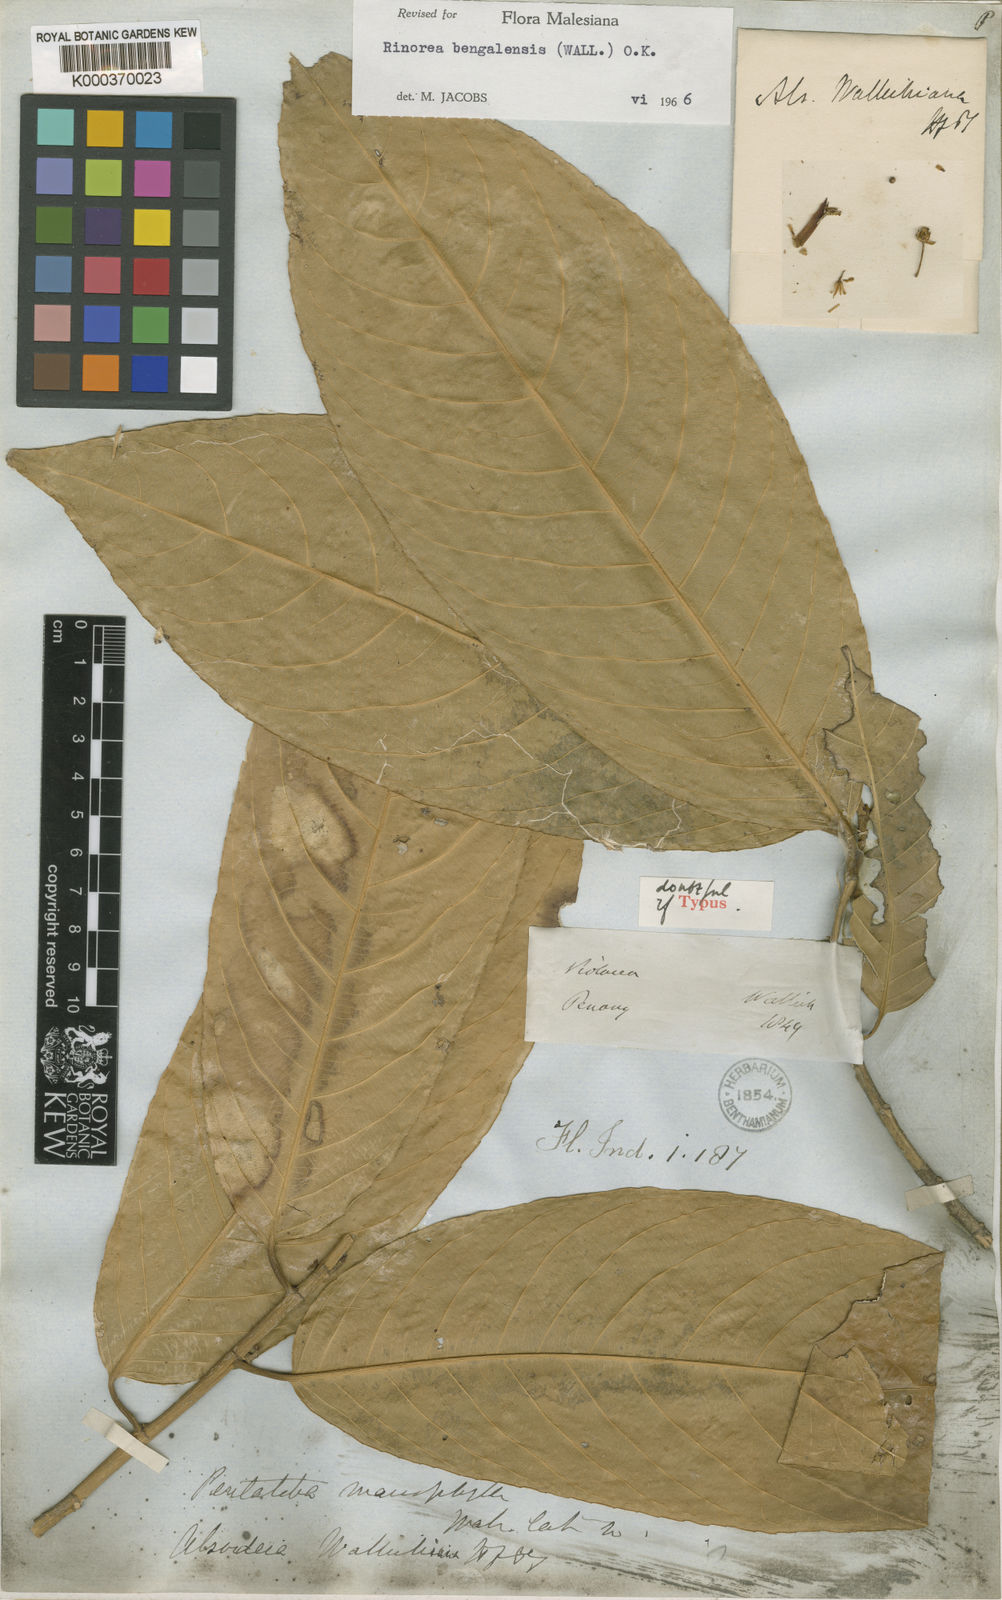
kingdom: Plantae
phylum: Tracheophyta
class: Magnoliopsida
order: Malpighiales
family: Violaceae
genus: Rinorea
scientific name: Rinorea bengalensis
